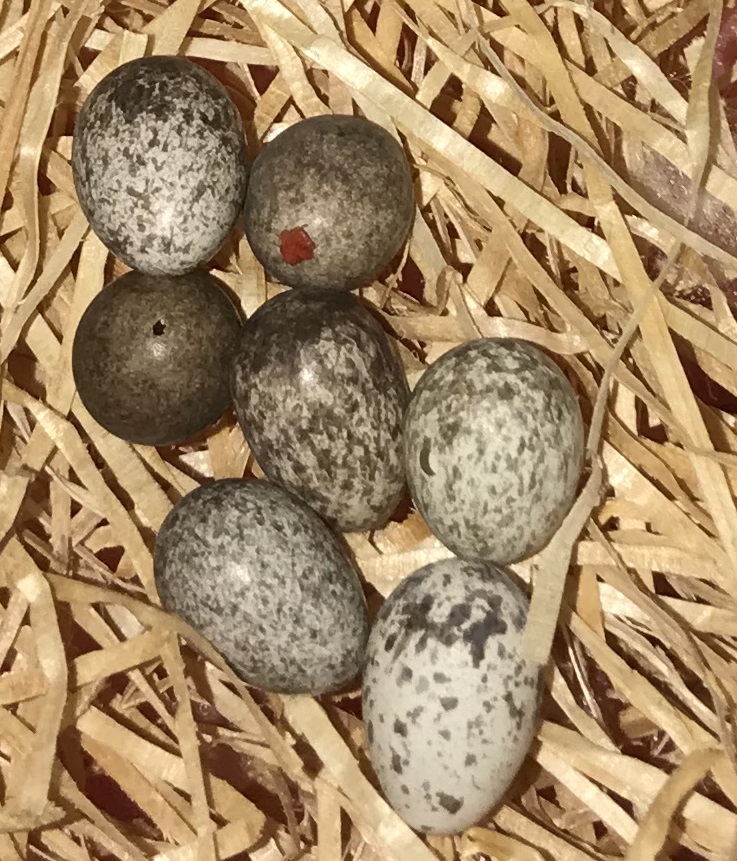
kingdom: Animalia
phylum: Chordata
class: Aves
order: Passeriformes
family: Passeridae
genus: Passer
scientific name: Passer montanus
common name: Eurasian tree sparrow
